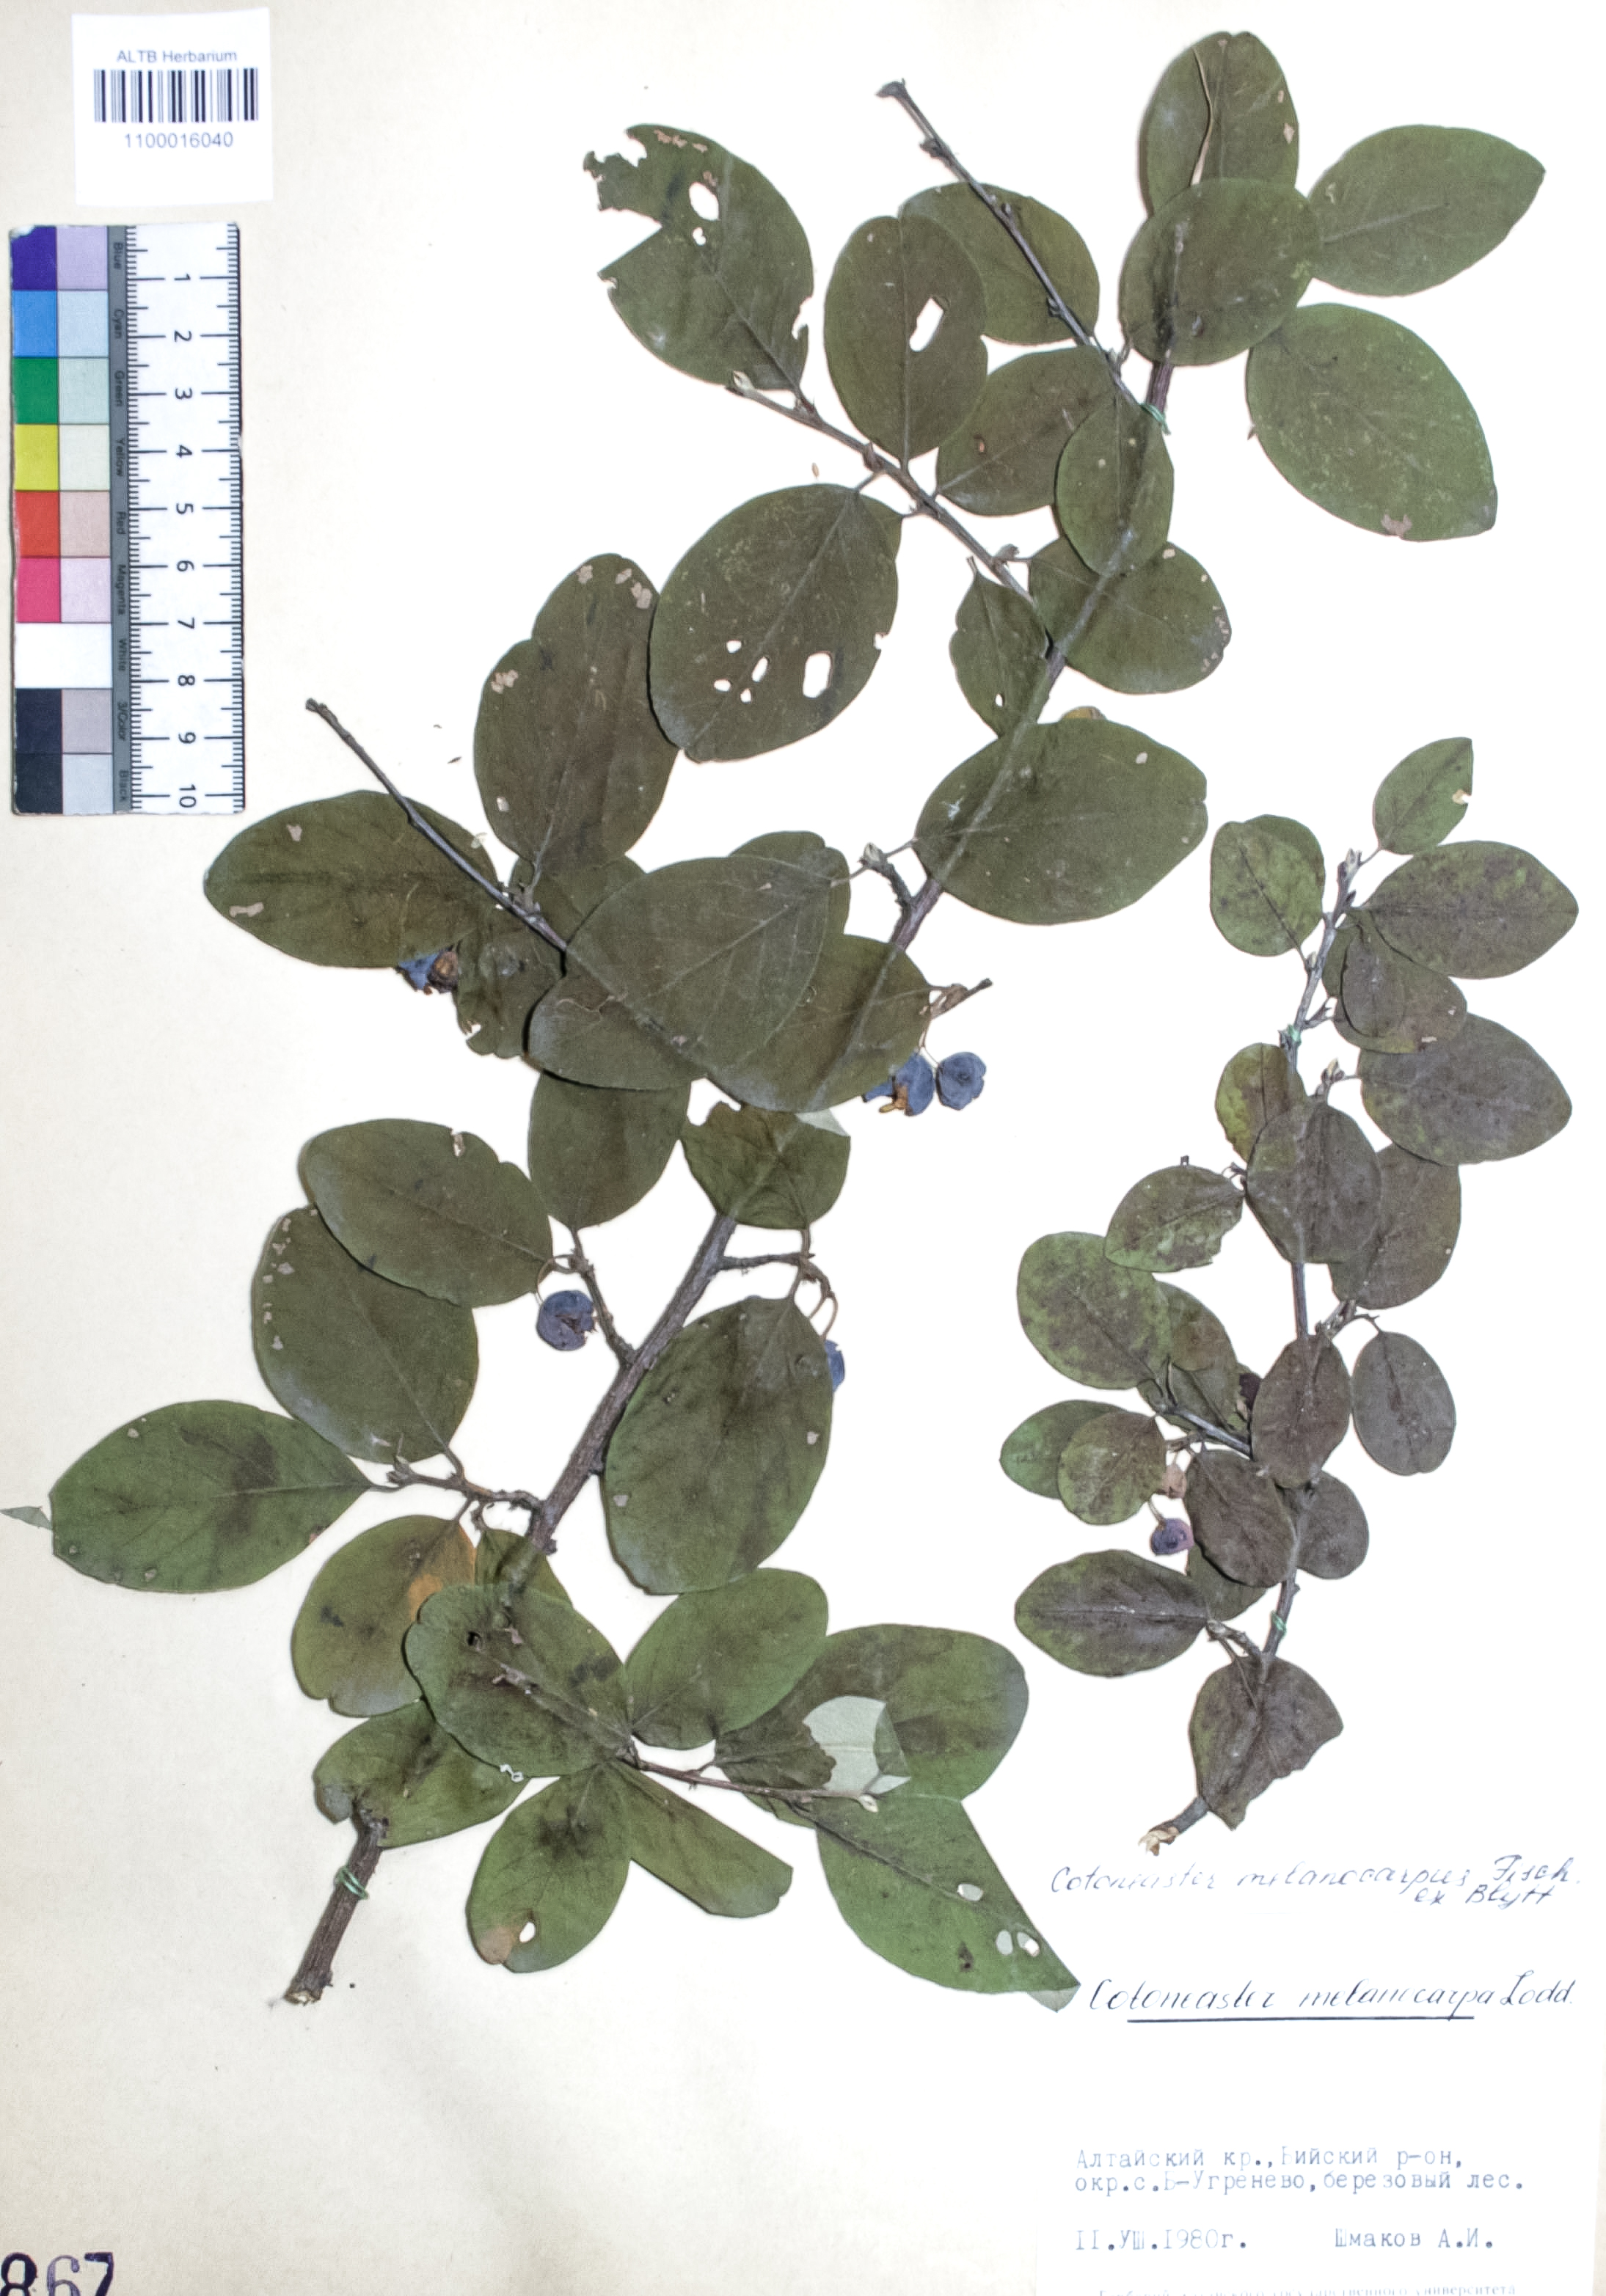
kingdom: Plantae
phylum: Tracheophyta
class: Magnoliopsida
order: Rosales
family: Rosaceae
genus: Cotoneaster
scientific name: Cotoneaster niger
